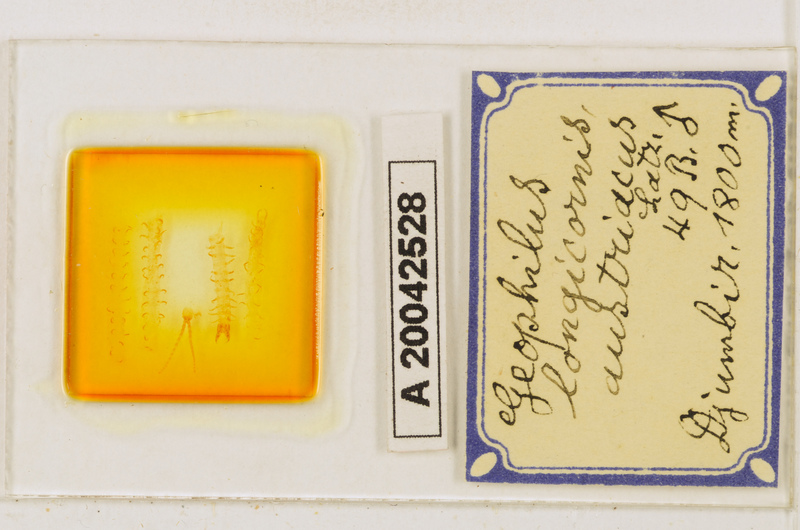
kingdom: Animalia
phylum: Arthropoda
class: Chilopoda
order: Geophilomorpha
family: Geophilidae
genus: Geophilus
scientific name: Geophilus flavus
